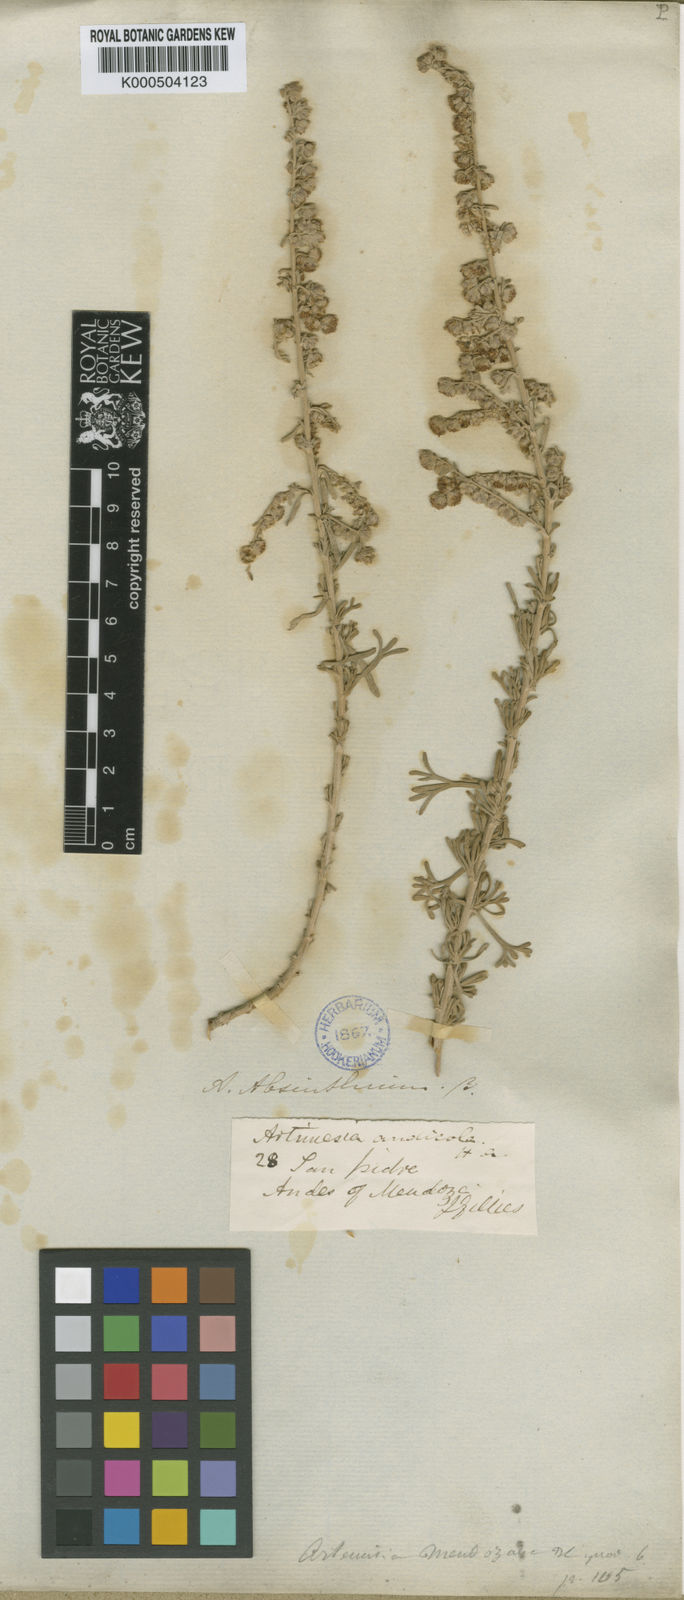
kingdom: Plantae
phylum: Tracheophyta
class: Magnoliopsida
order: Asterales
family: Asteraceae
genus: Artemisia
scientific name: Artemisia mendozana
